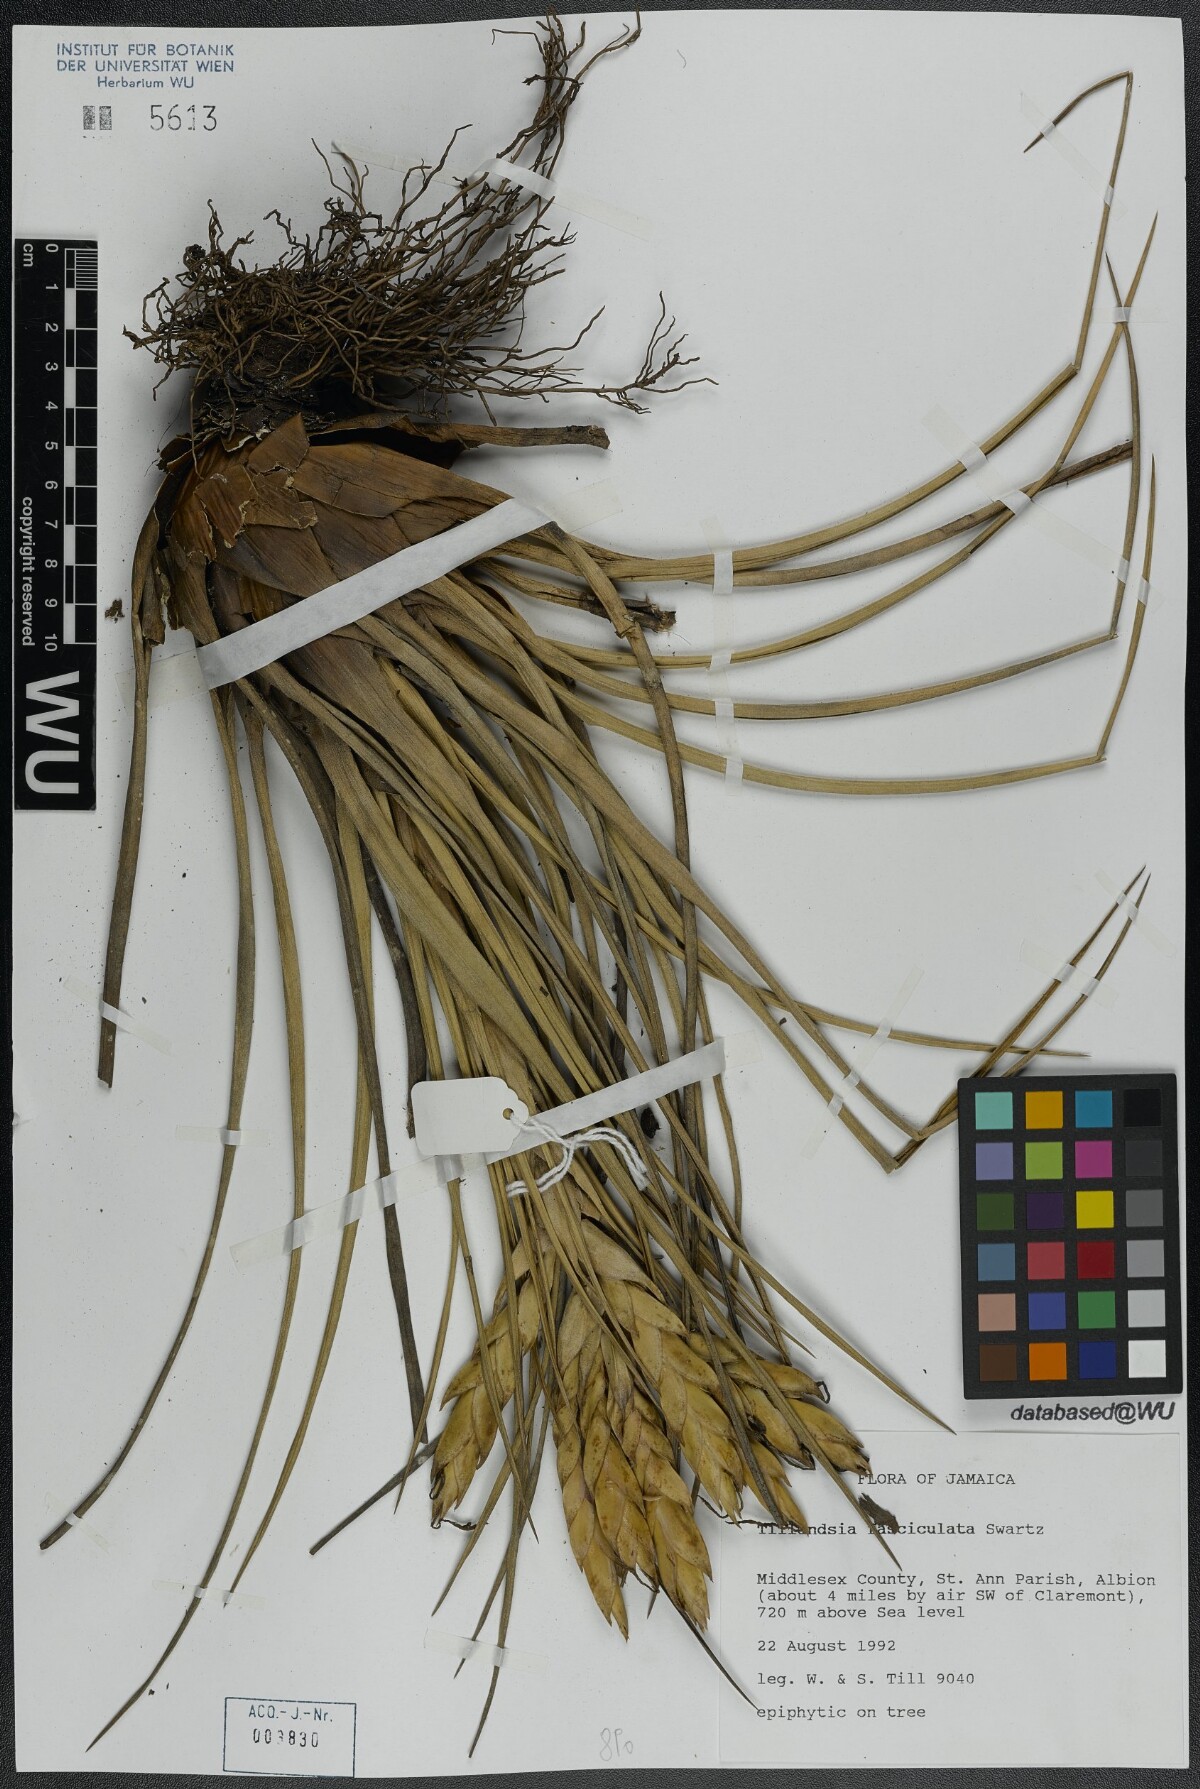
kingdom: Plantae
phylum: Tracheophyta
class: Liliopsida
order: Poales
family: Bromeliaceae
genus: Tillandsia
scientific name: Tillandsia fasciculata
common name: Giant airplant
